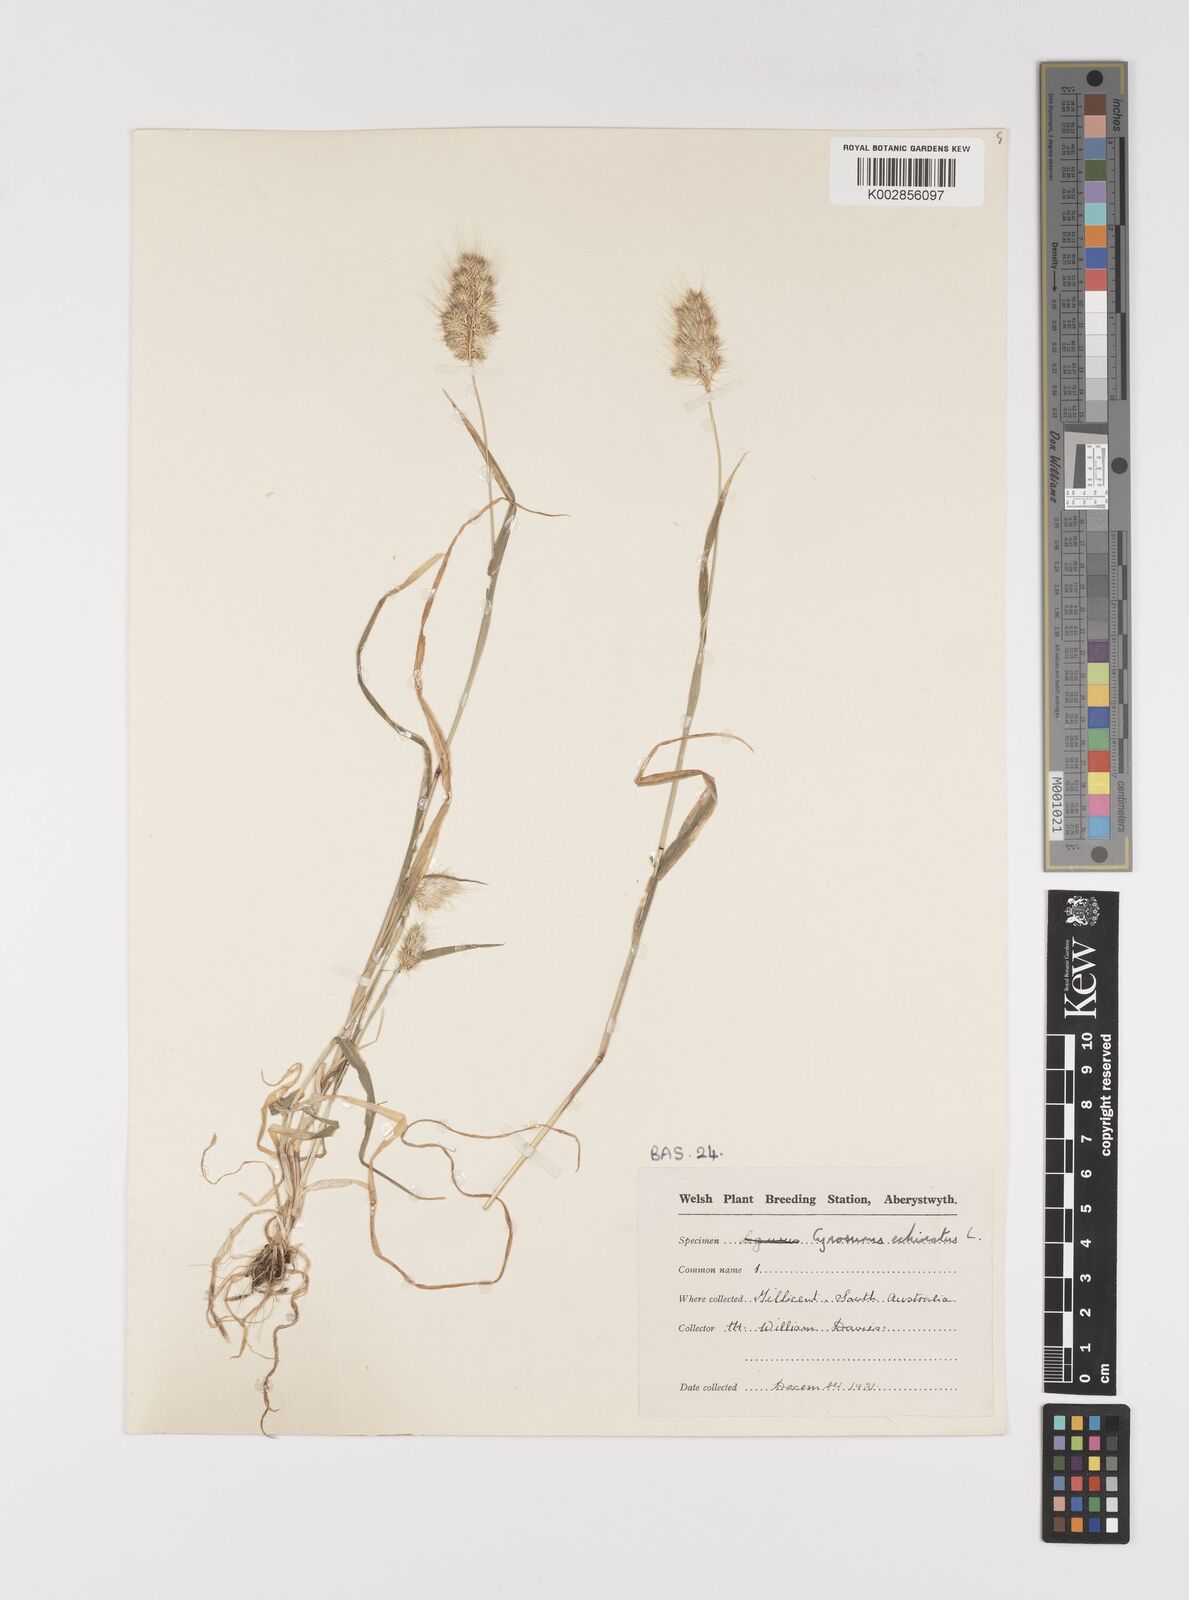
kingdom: Plantae
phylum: Tracheophyta
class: Liliopsida
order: Poales
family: Poaceae
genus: Cynosurus
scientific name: Cynosurus echinatus
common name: Rough dog's-tail
